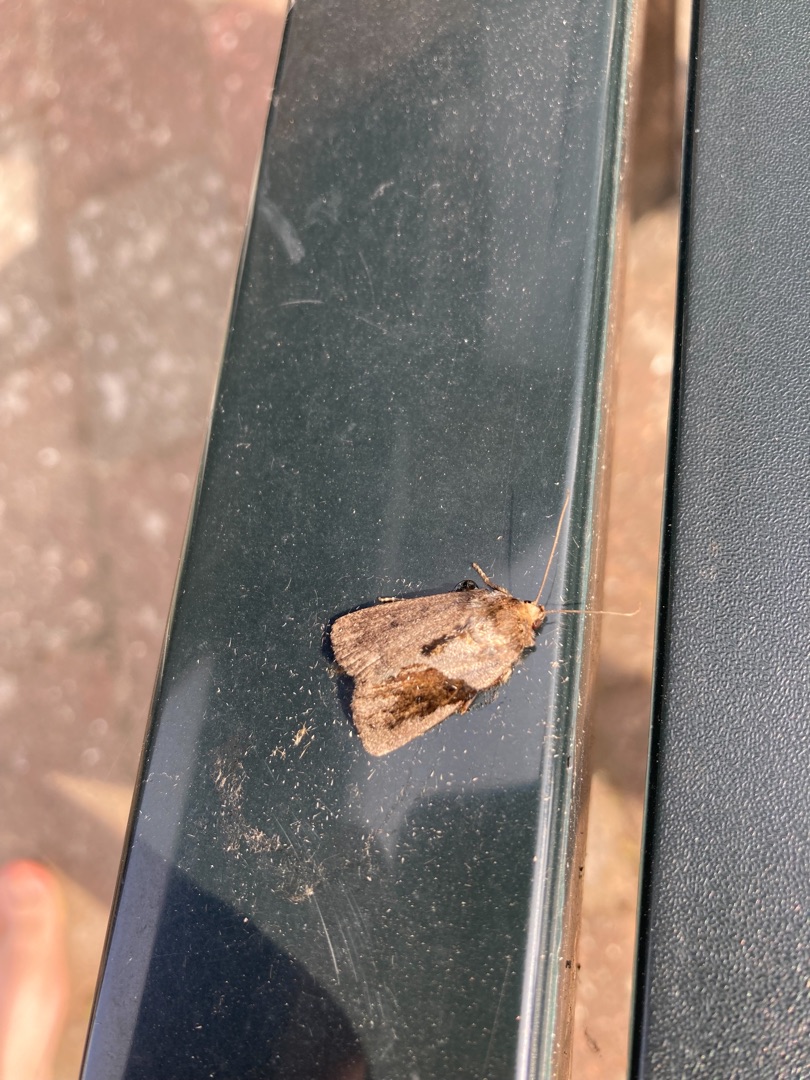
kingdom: Animalia
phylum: Arthropoda
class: Insecta
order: Lepidoptera
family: Noctuidae
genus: Amphipyra
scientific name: Amphipyra tragopoginis
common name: Blyantsugle
